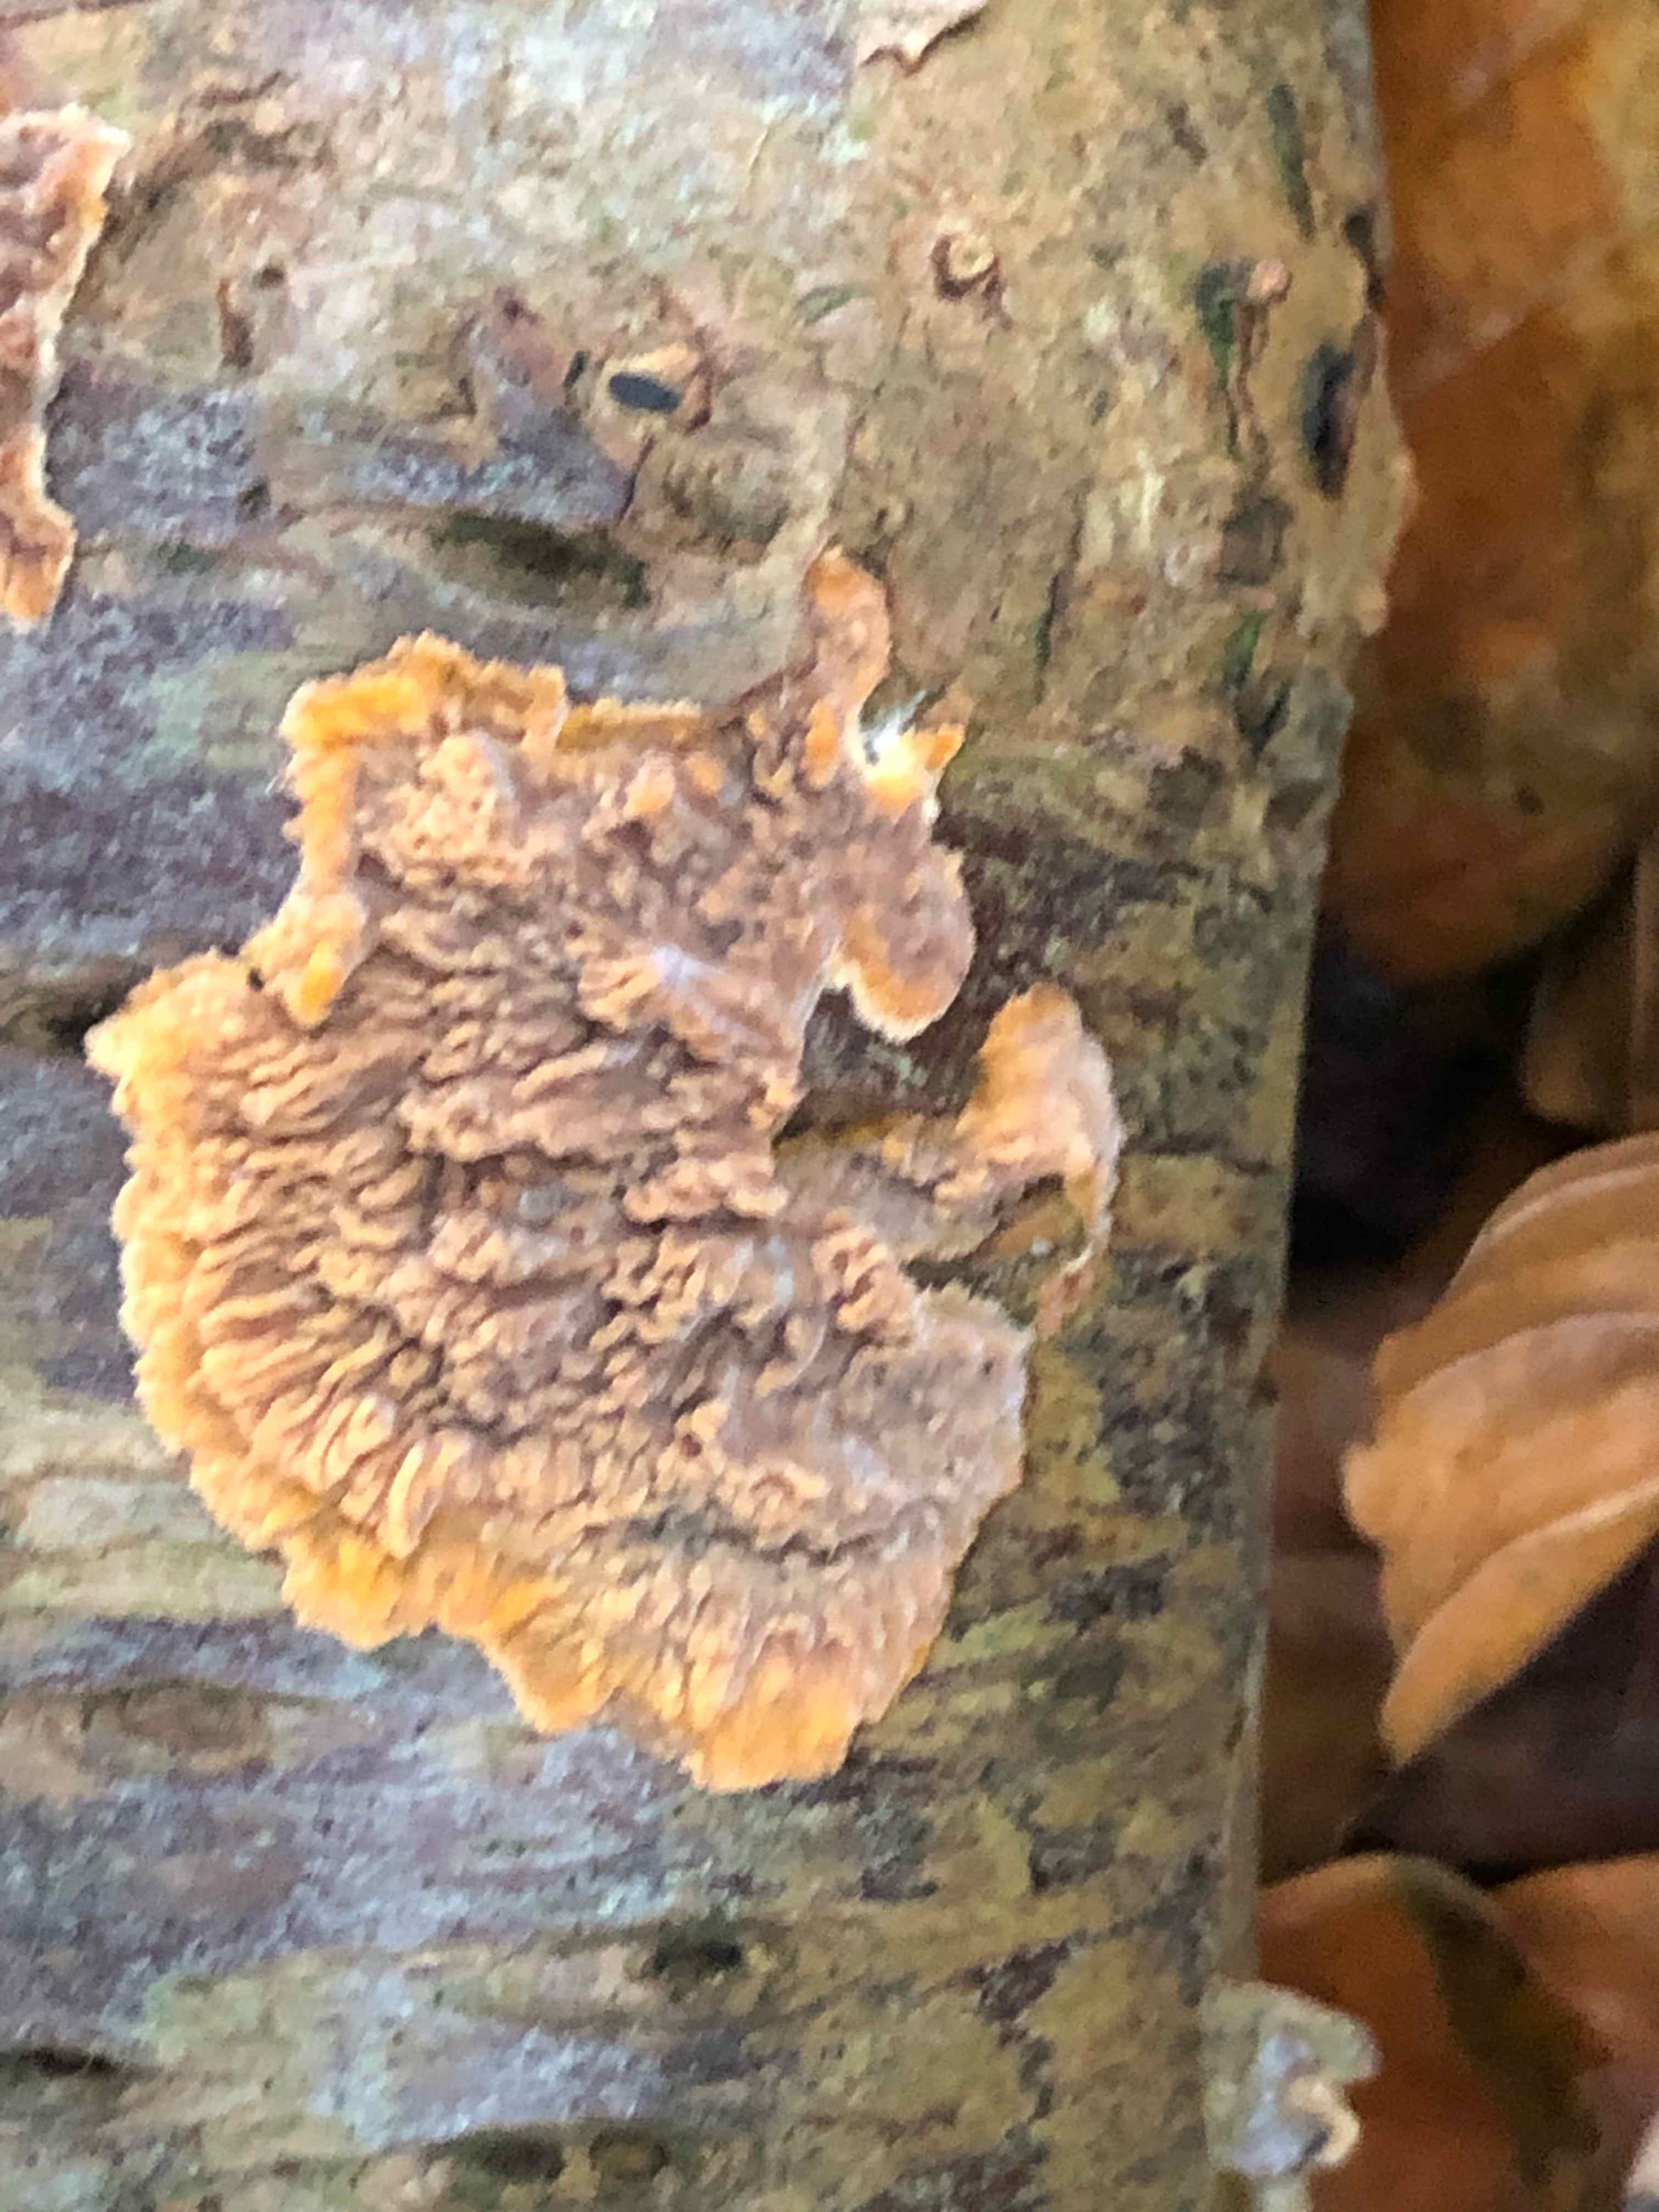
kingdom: Fungi
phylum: Basidiomycota
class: Agaricomycetes
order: Polyporales
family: Meruliaceae
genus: Phlebia
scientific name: Phlebia radiata
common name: stråle-åresvamp
